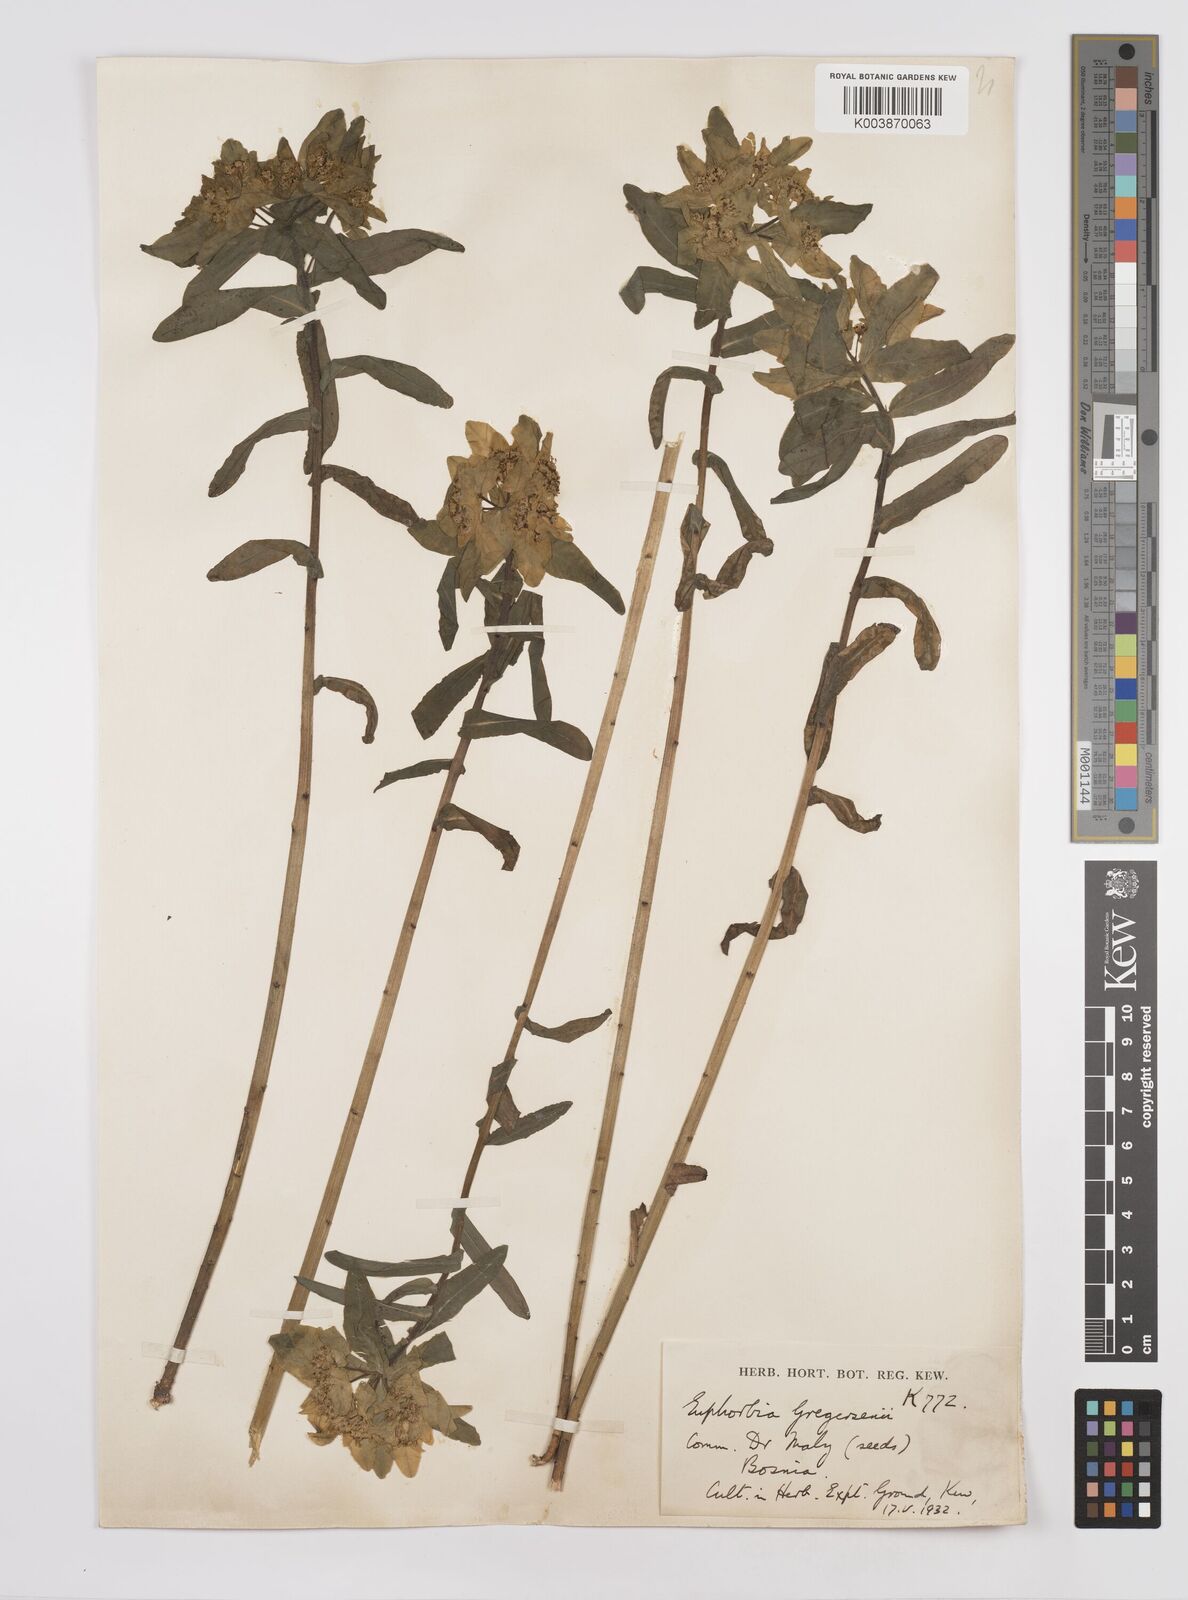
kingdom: Plantae
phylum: Tracheophyta
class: Magnoliopsida
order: Malpighiales
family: Euphorbiaceae
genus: Euphorbia
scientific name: Euphorbia gregersenii
